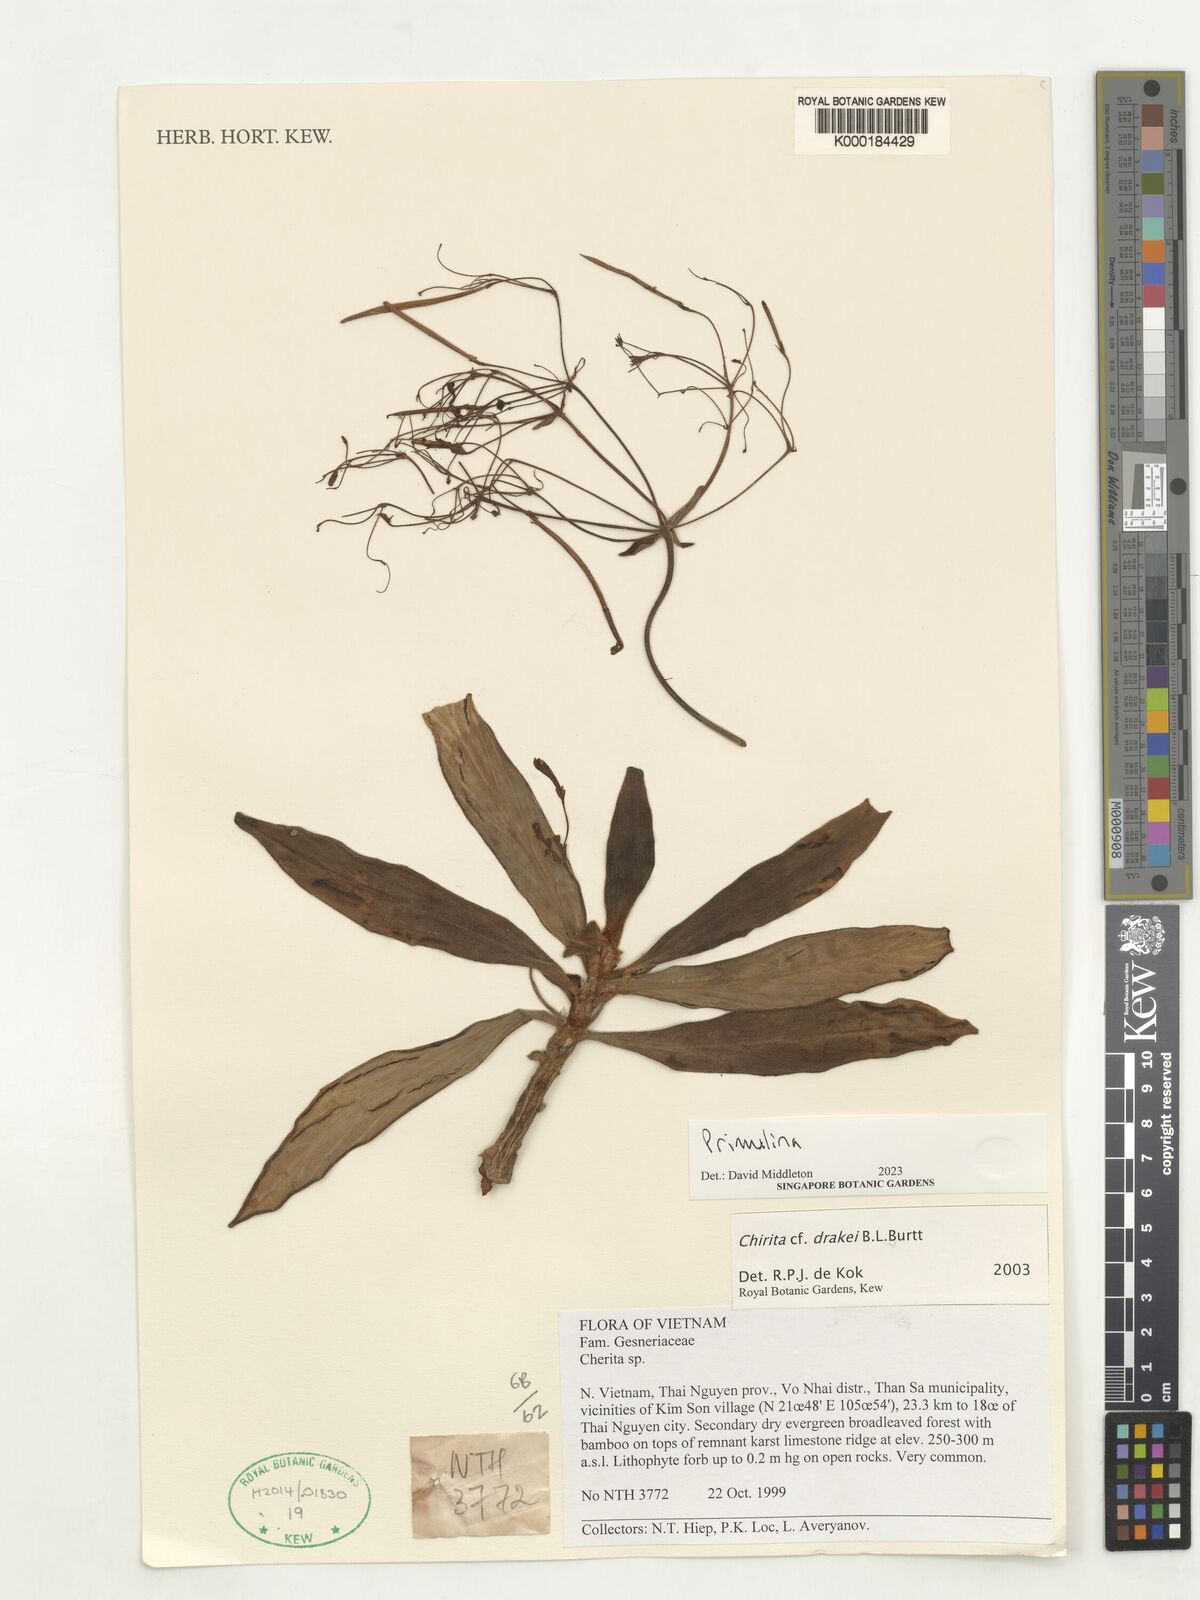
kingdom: Plantae
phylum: Tracheophyta
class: Magnoliopsida
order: Lamiales
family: Gesneriaceae
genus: Primulina
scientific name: Primulina
